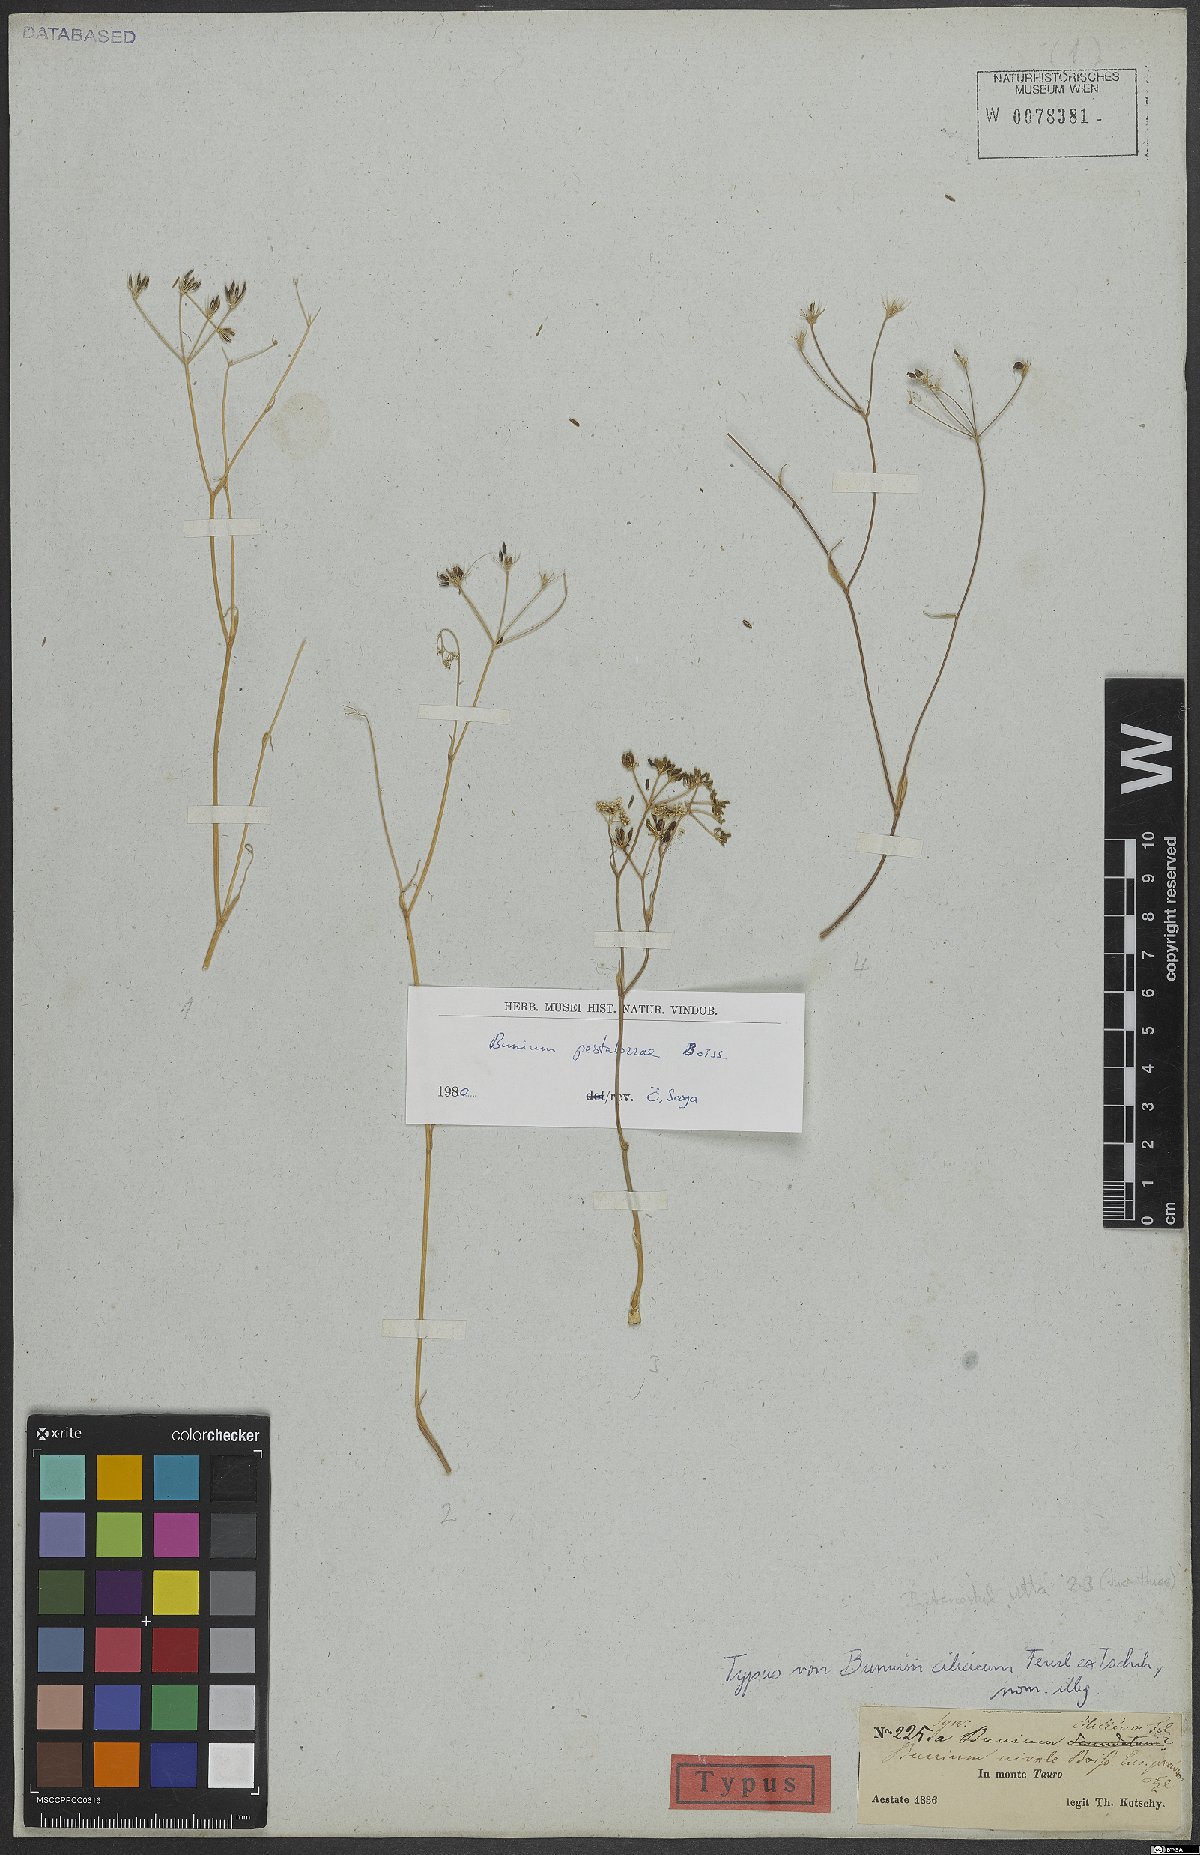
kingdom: Plantae
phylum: Tracheophyta
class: Magnoliopsida
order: Apiales
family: Apiaceae
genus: Bunium
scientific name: Bunium pestalozzae
